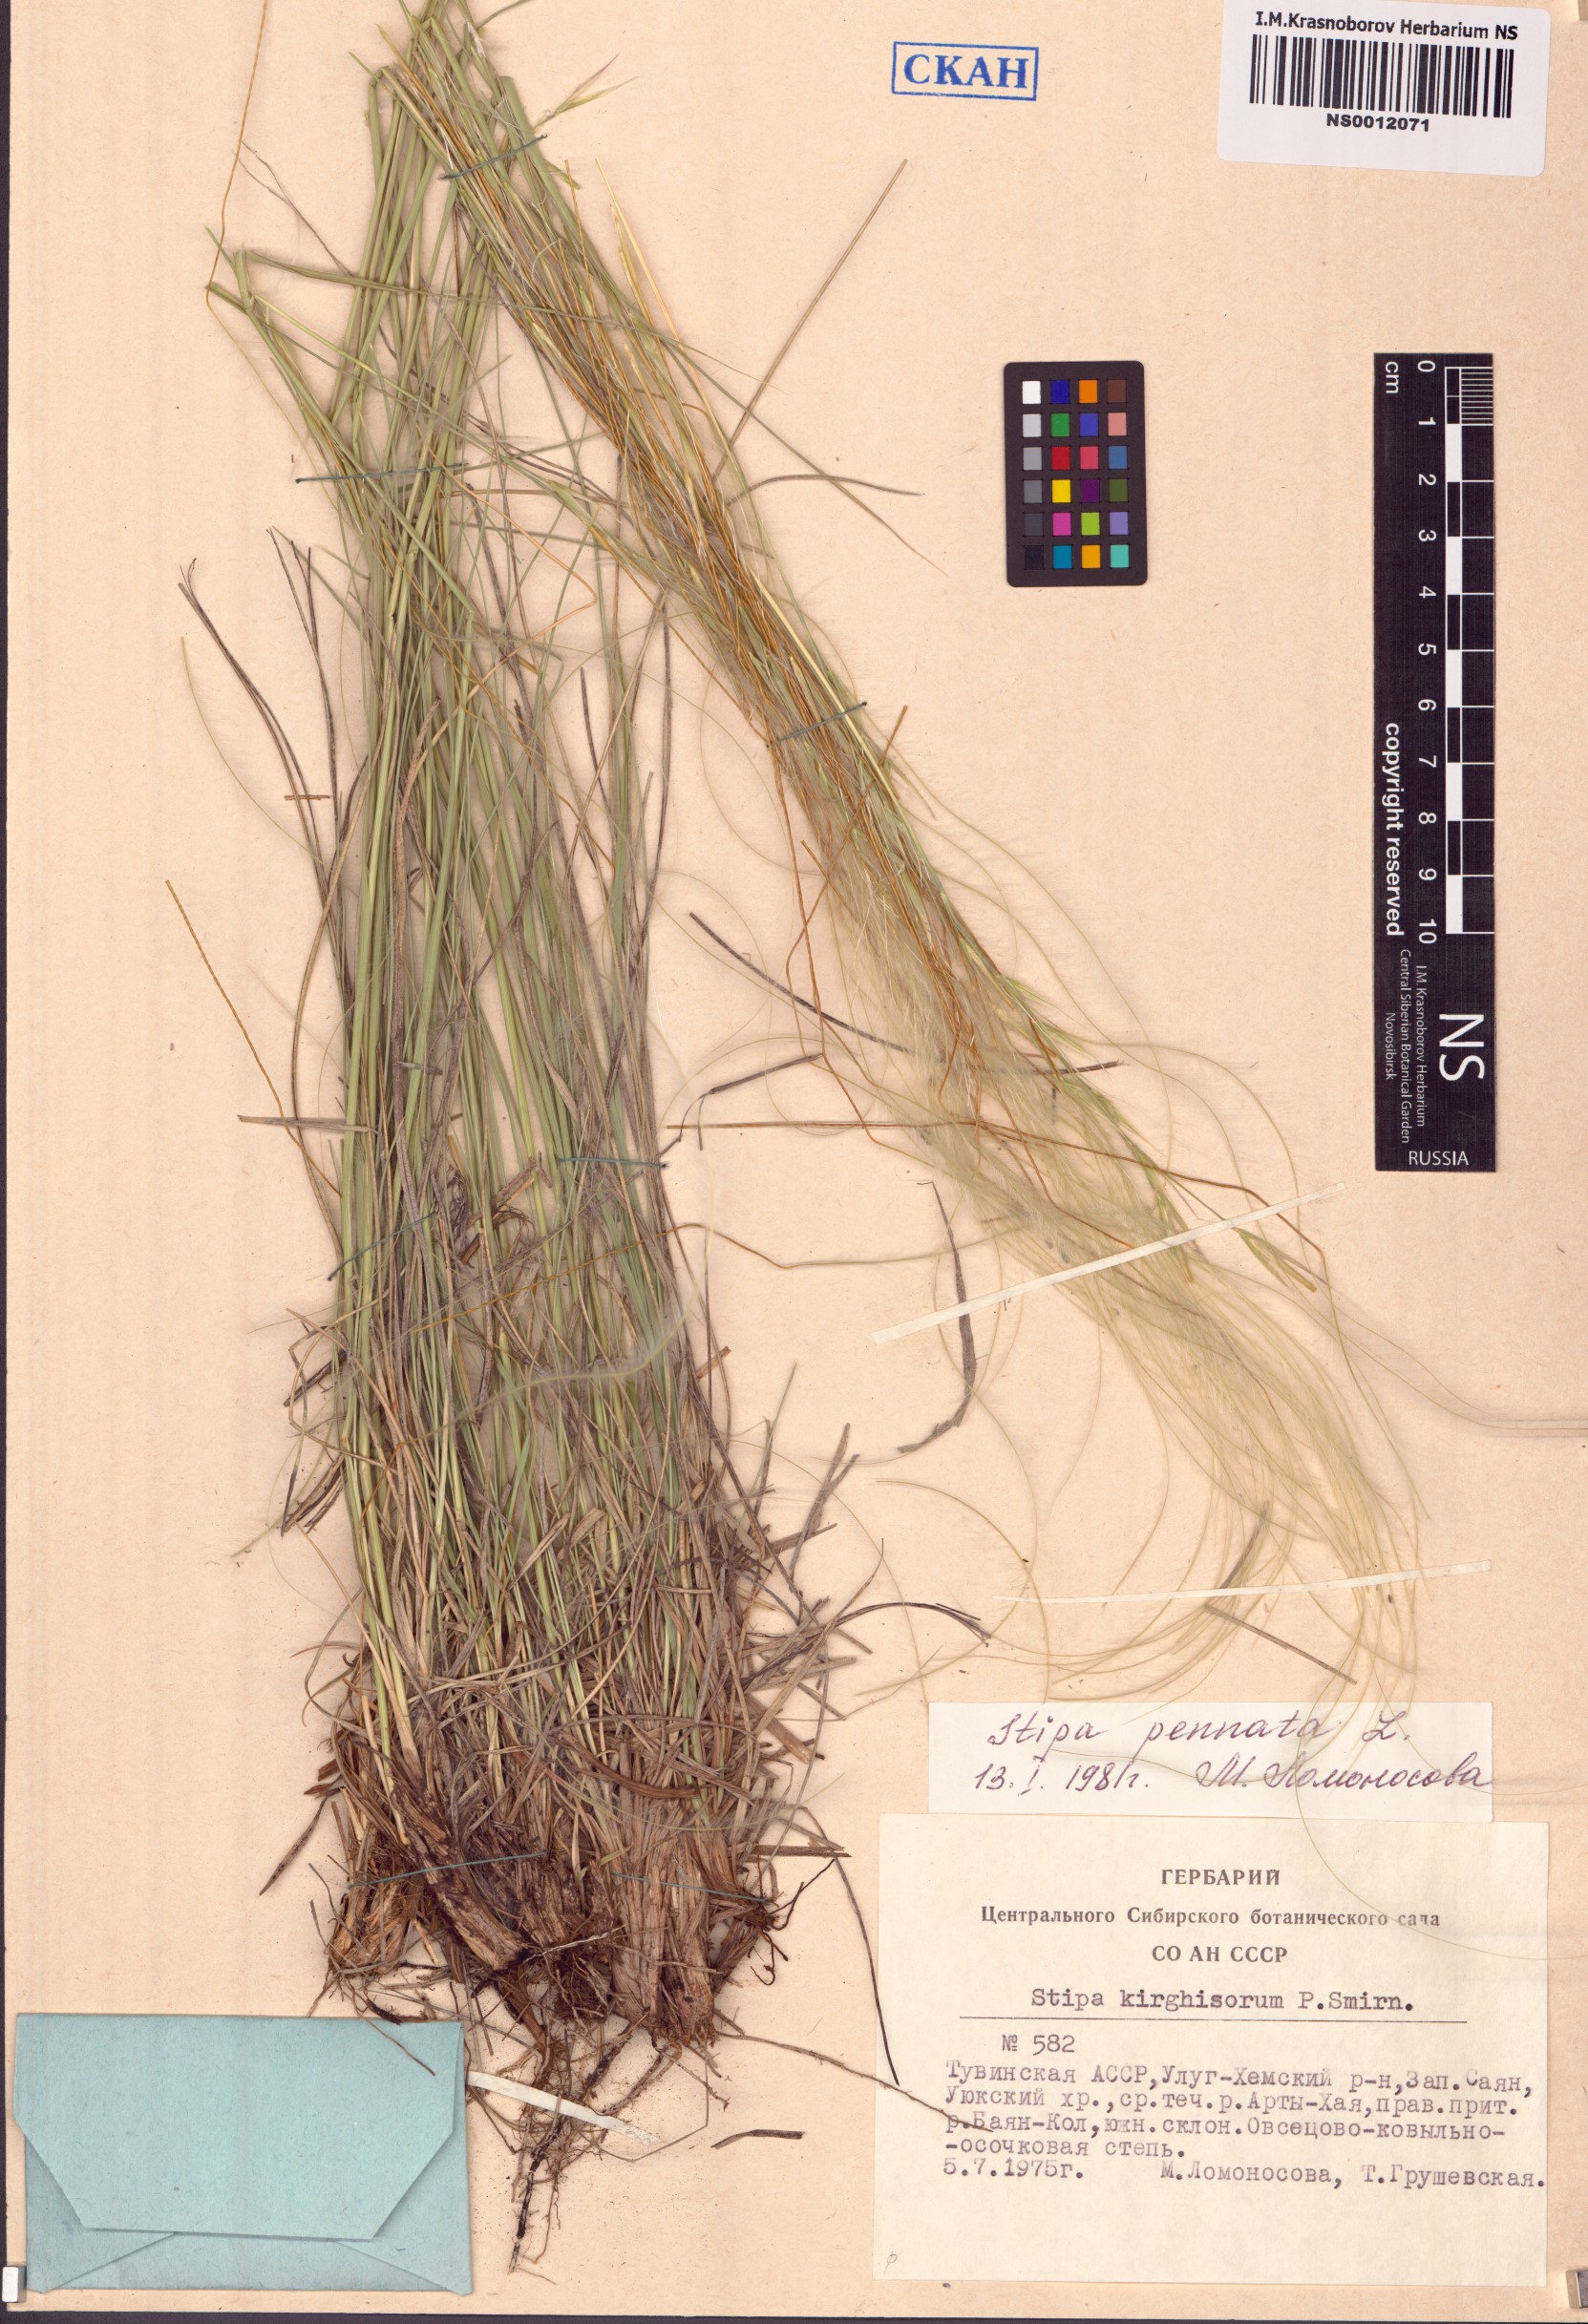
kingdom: Plantae
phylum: Tracheophyta
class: Liliopsida
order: Poales
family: Poaceae
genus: Stipa
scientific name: Stipa pennata
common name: European feather grass
